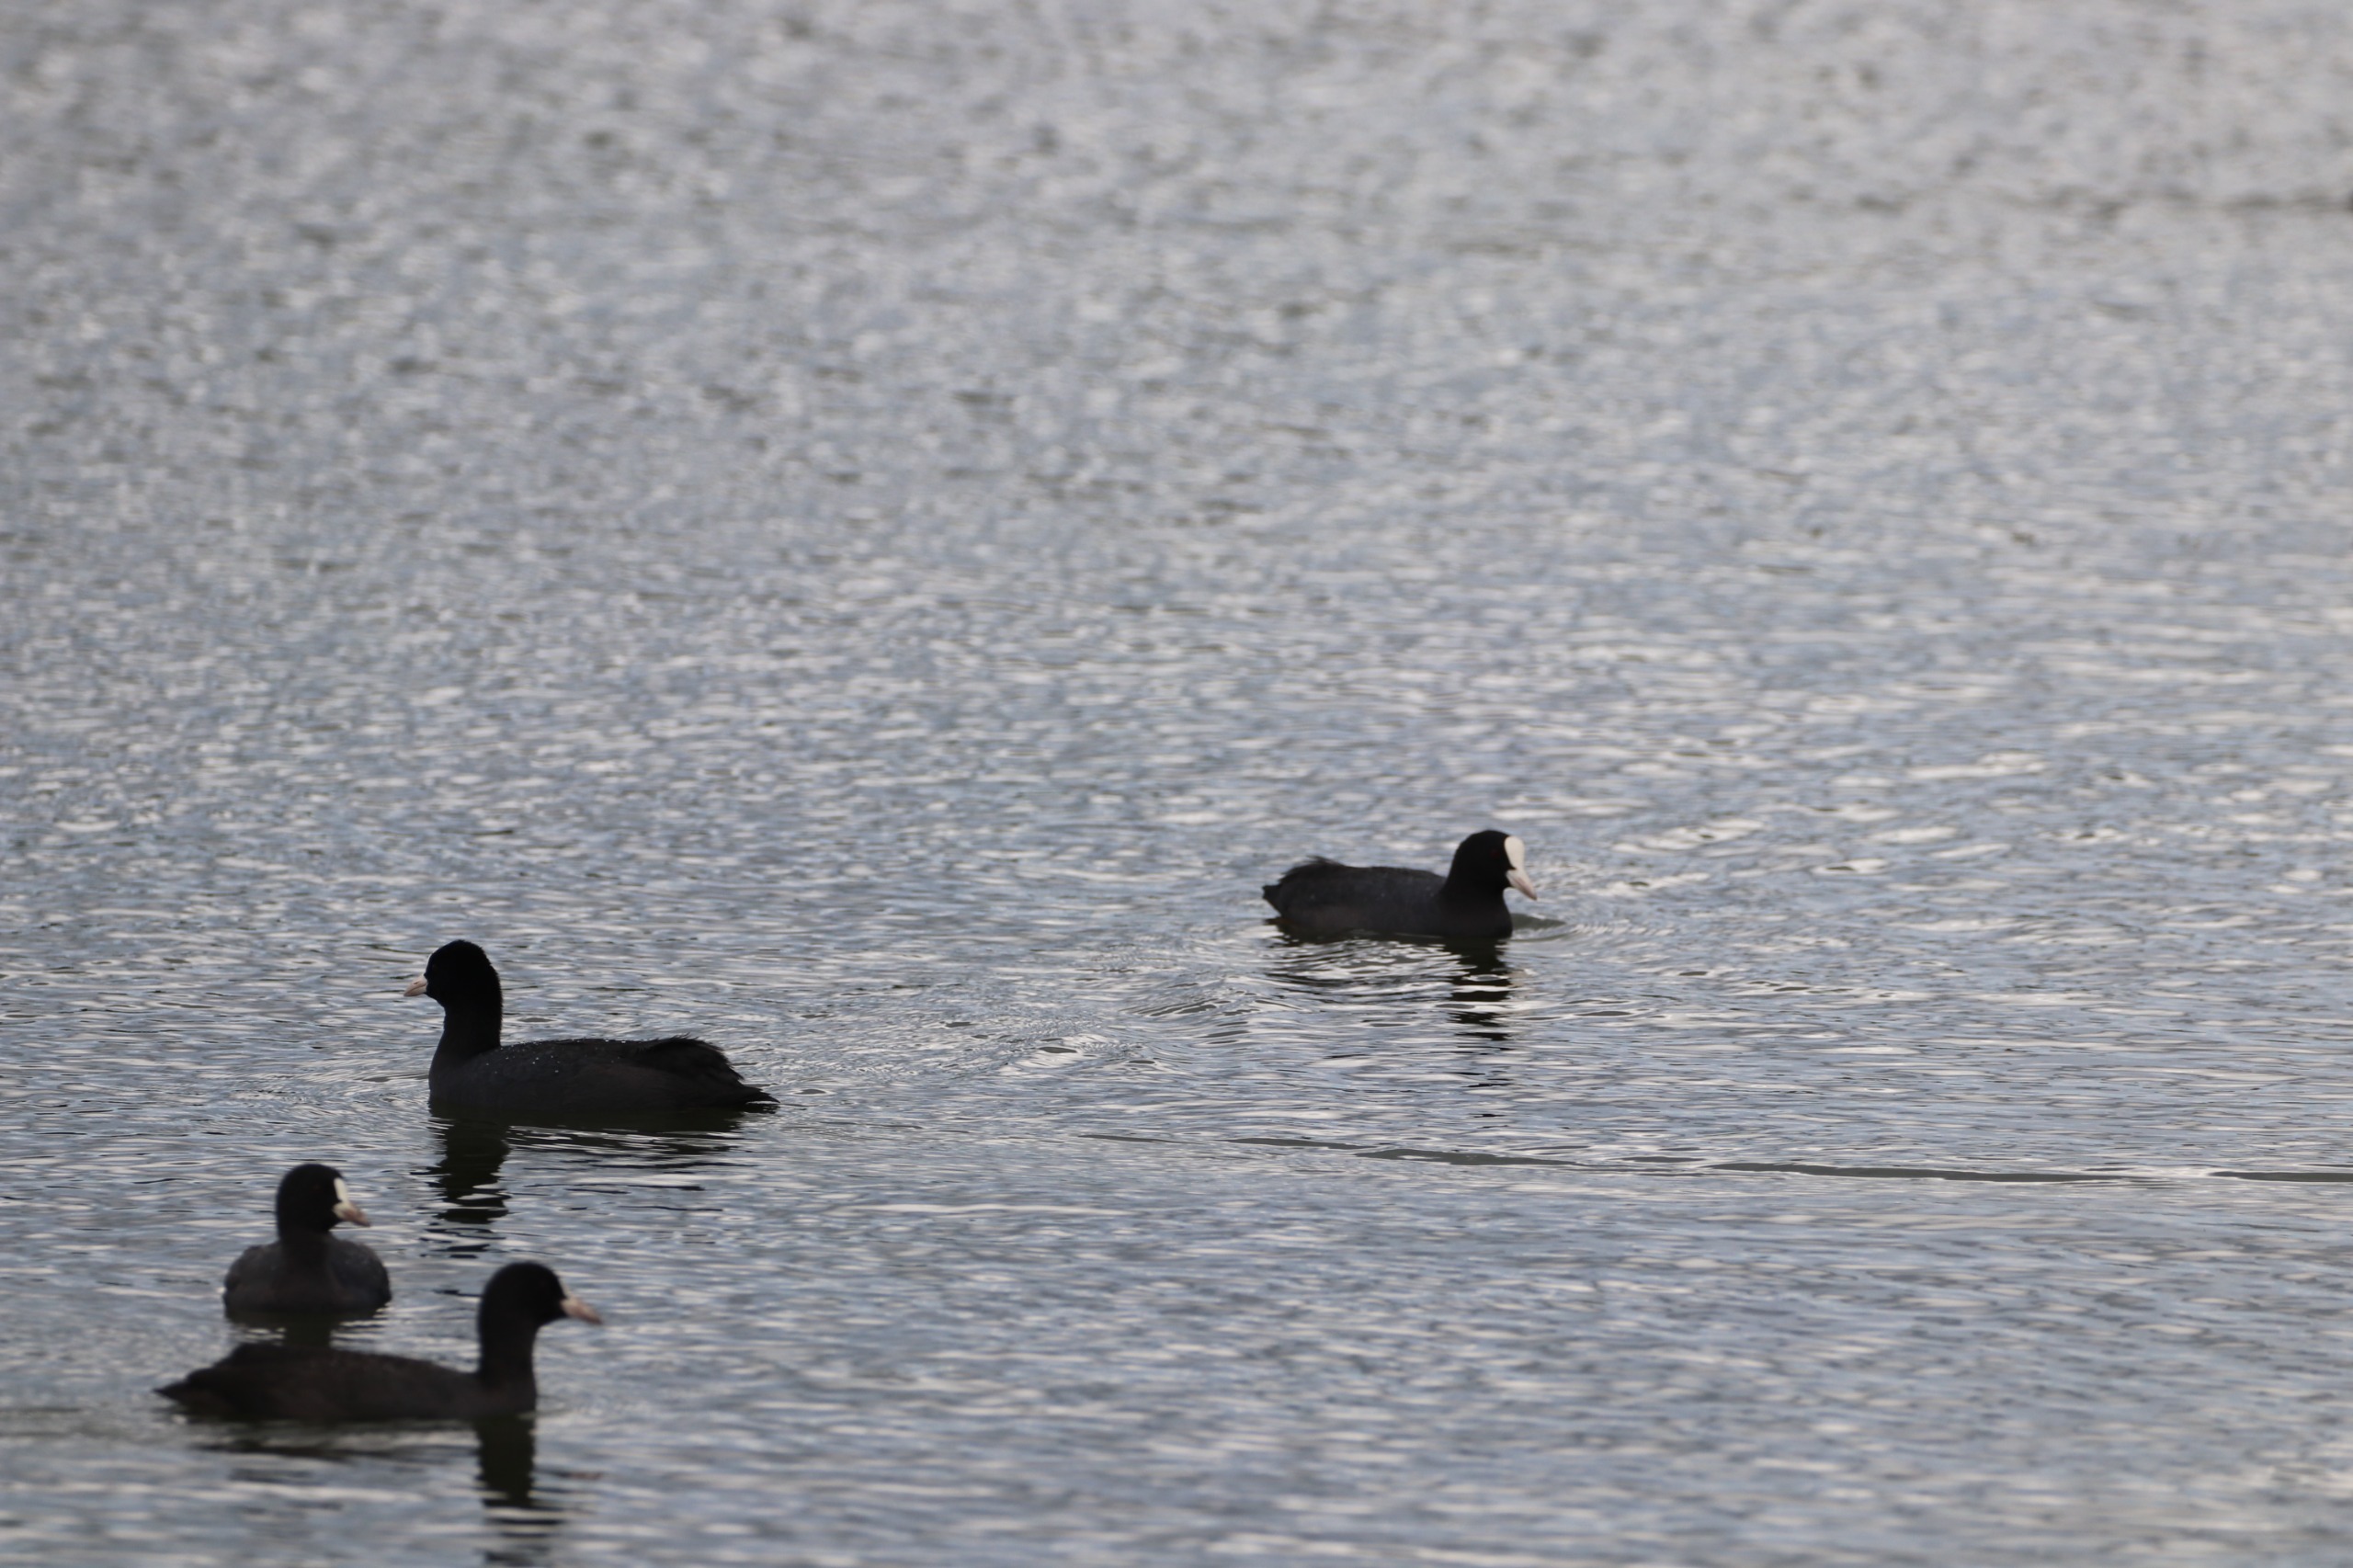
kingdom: Animalia
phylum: Chordata
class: Aves
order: Gruiformes
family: Rallidae
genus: Fulica
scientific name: Fulica atra
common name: Blishøne
